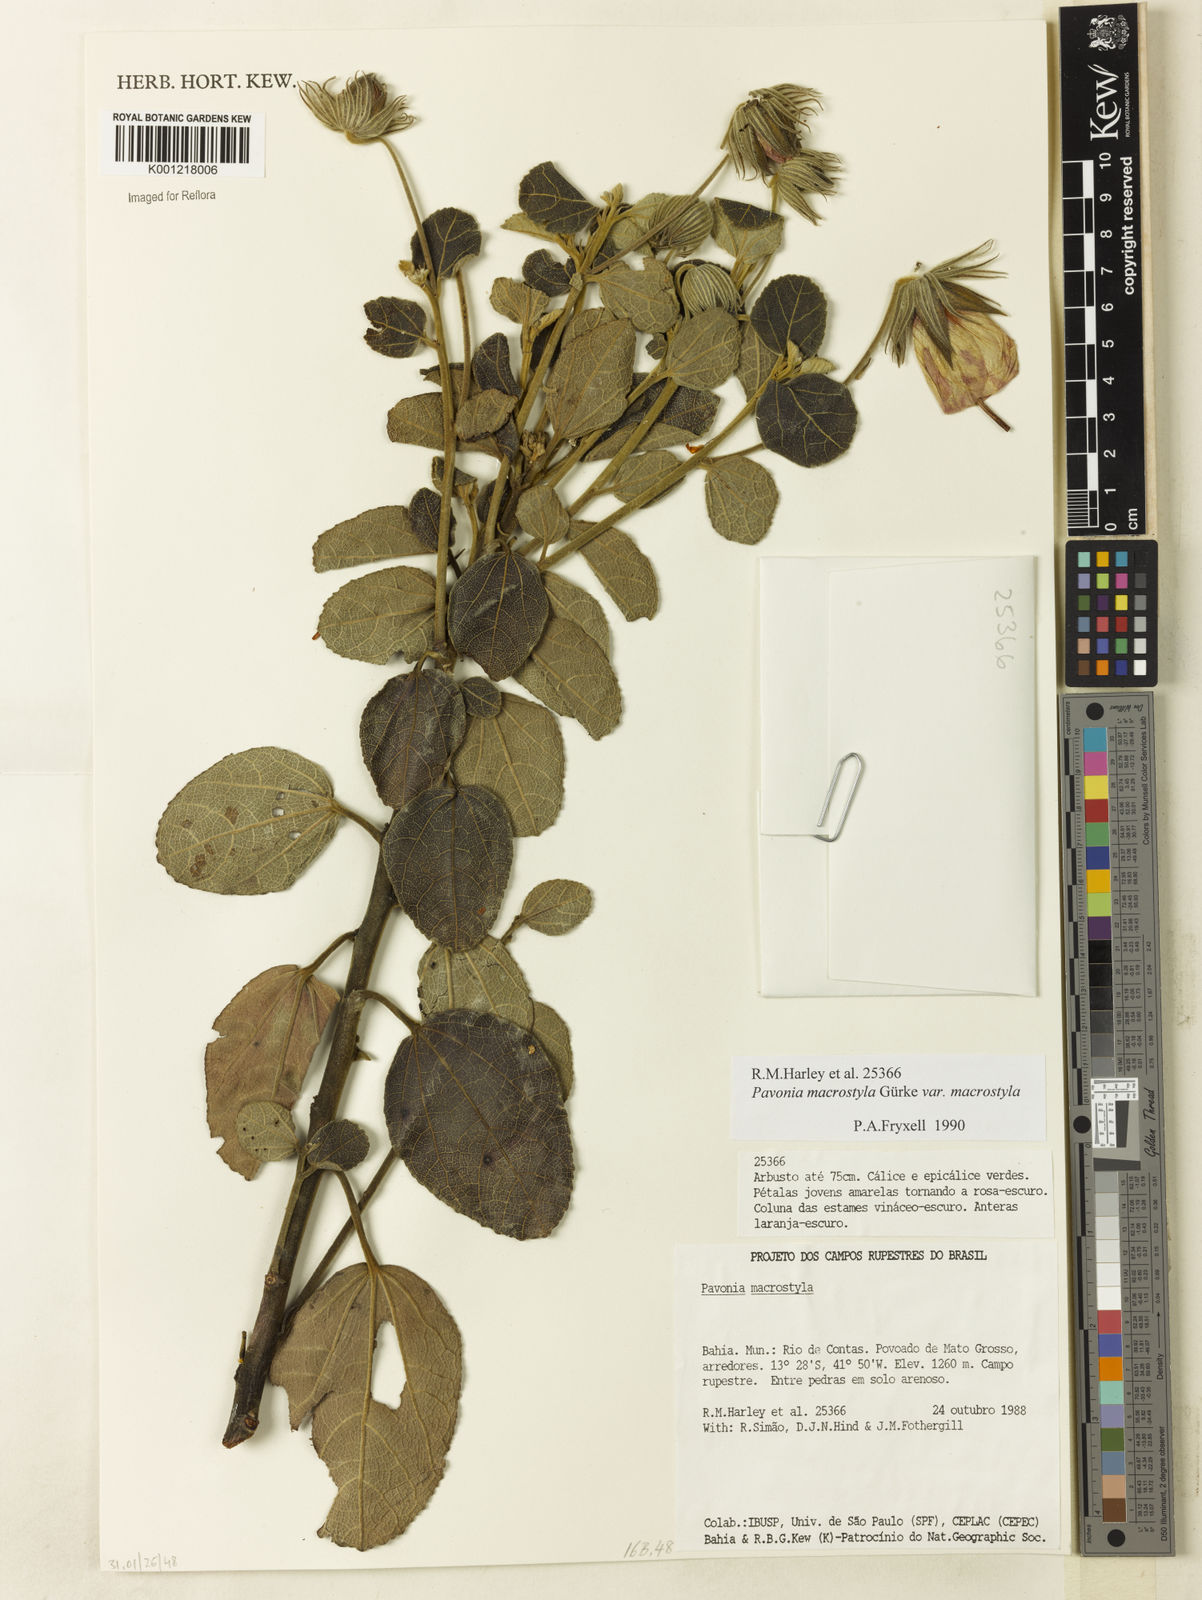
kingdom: Plantae
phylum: Tracheophyta
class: Magnoliopsida
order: Malvales
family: Malvaceae
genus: Pavonia
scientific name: Pavonia macrostyla
